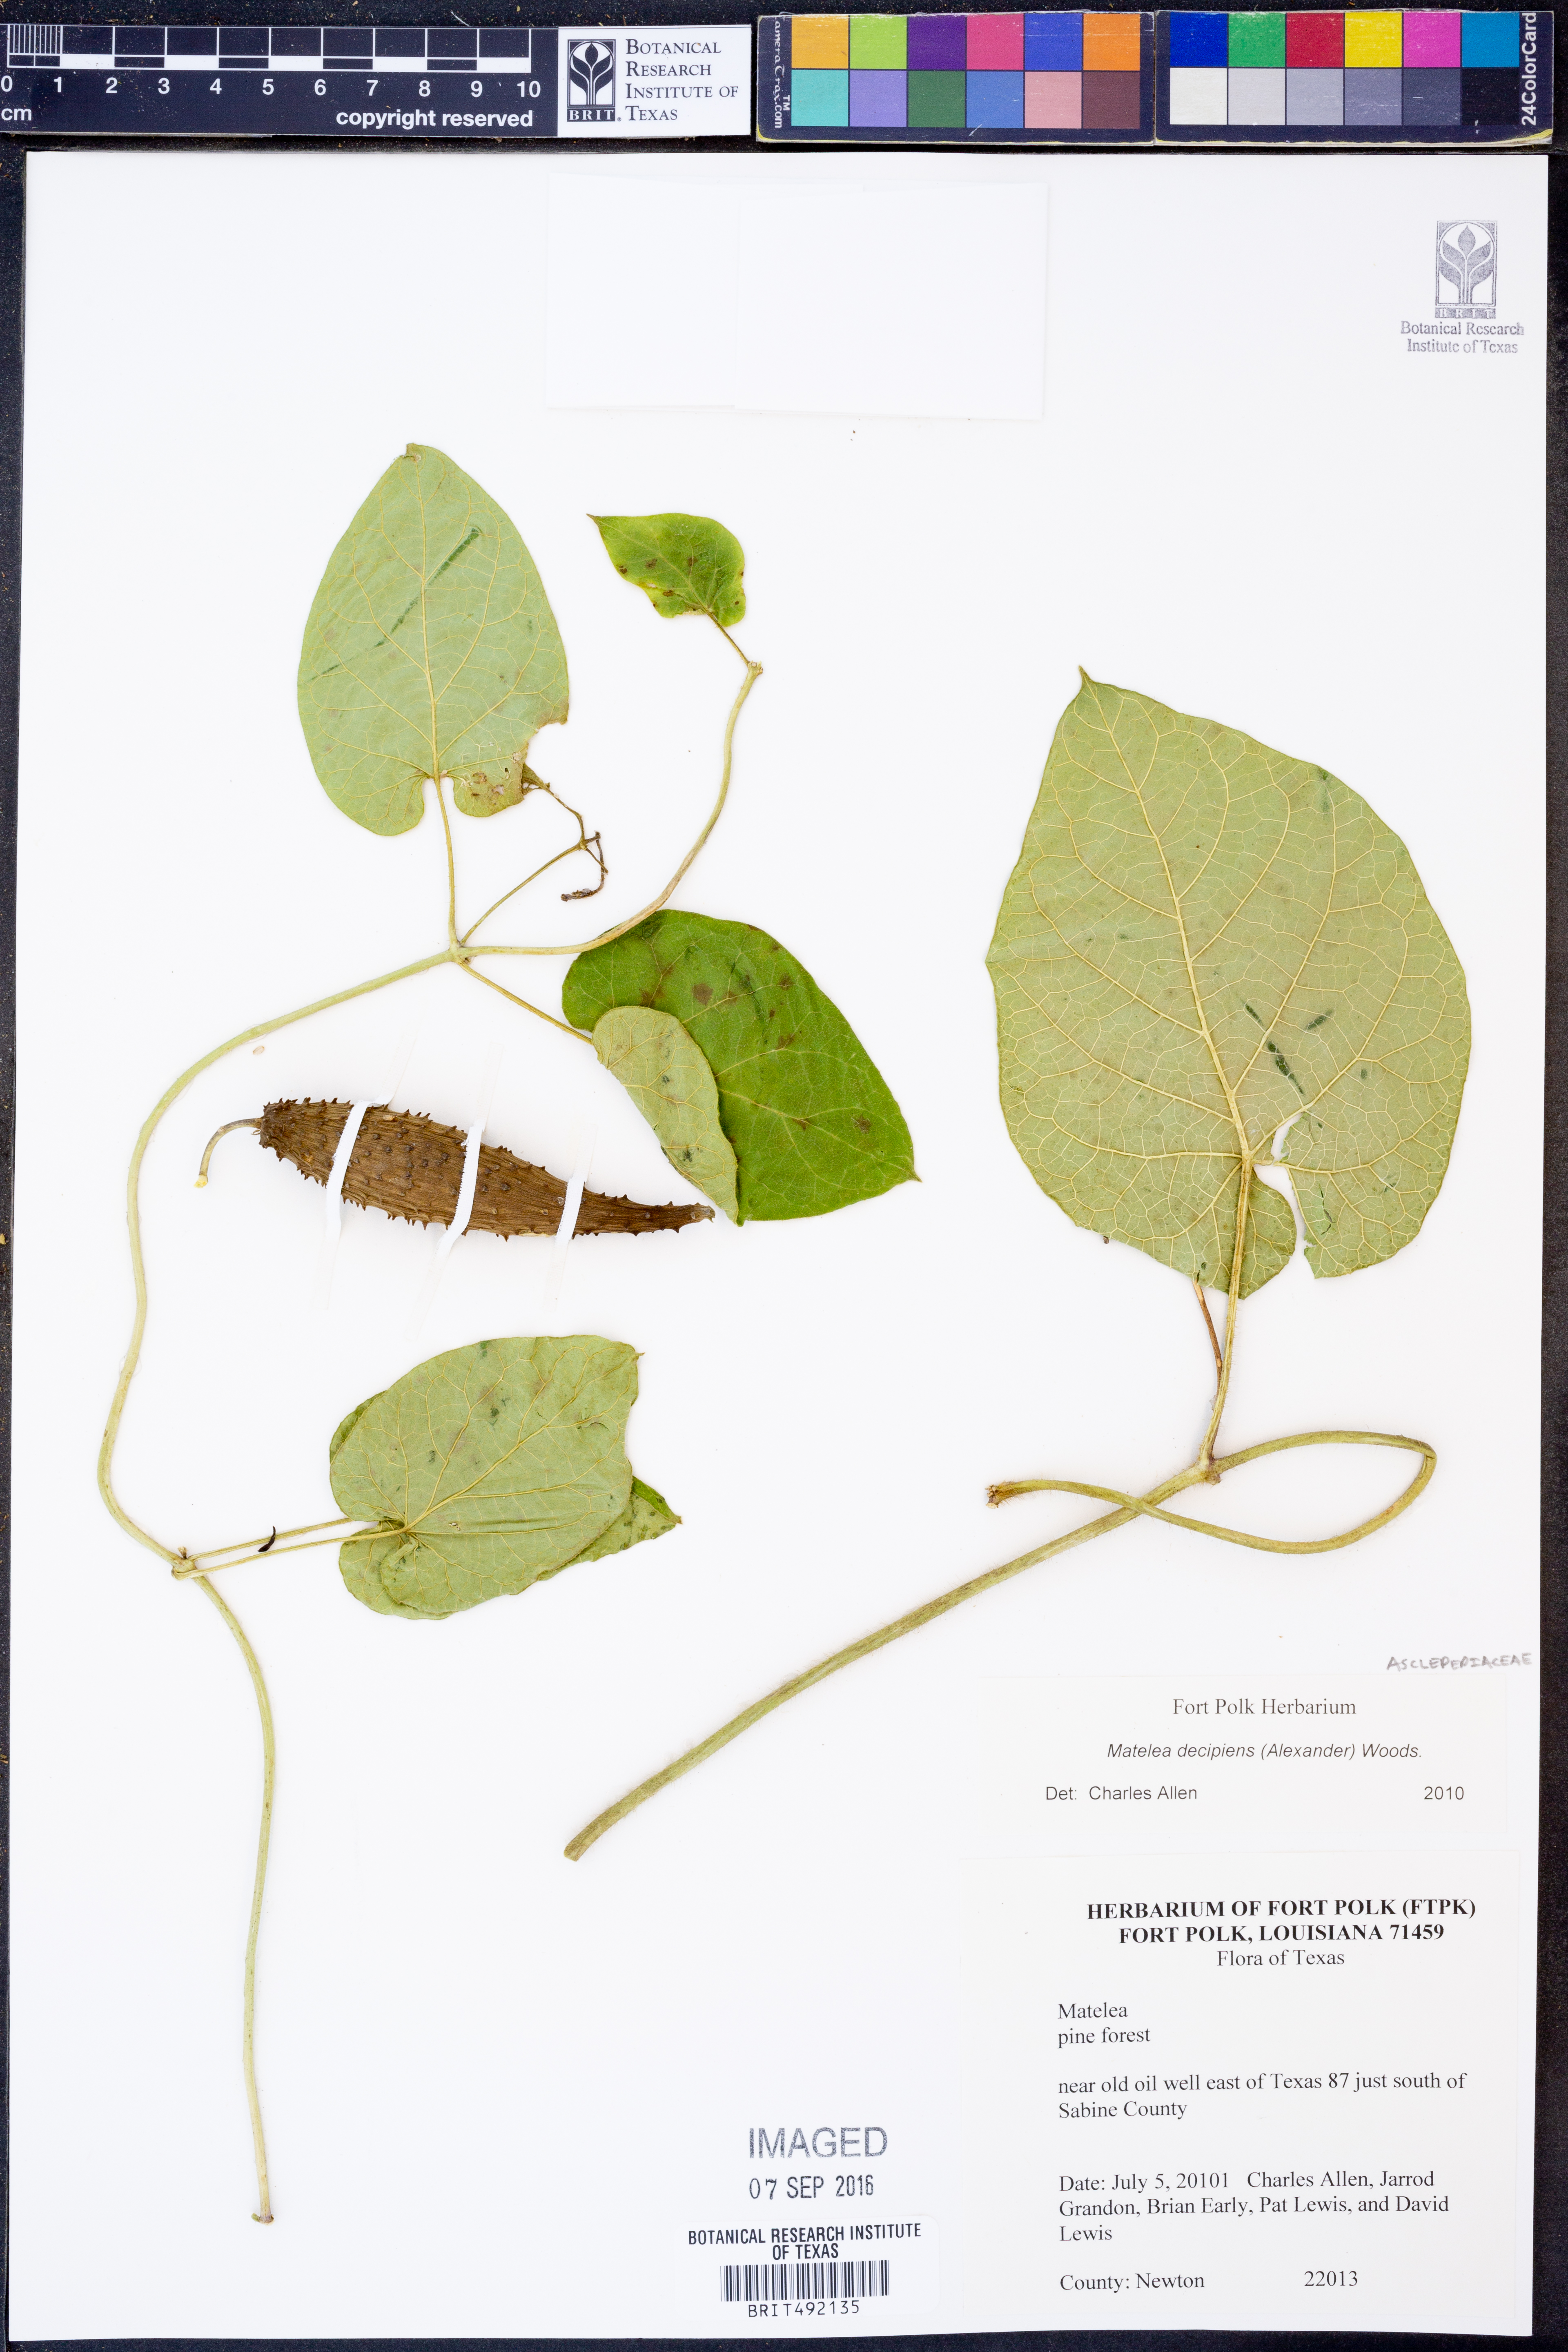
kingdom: Plantae
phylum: Tracheophyta
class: Magnoliopsida
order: Gentianales
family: Apocynaceae
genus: Matelea
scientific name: Matelea decipiens
